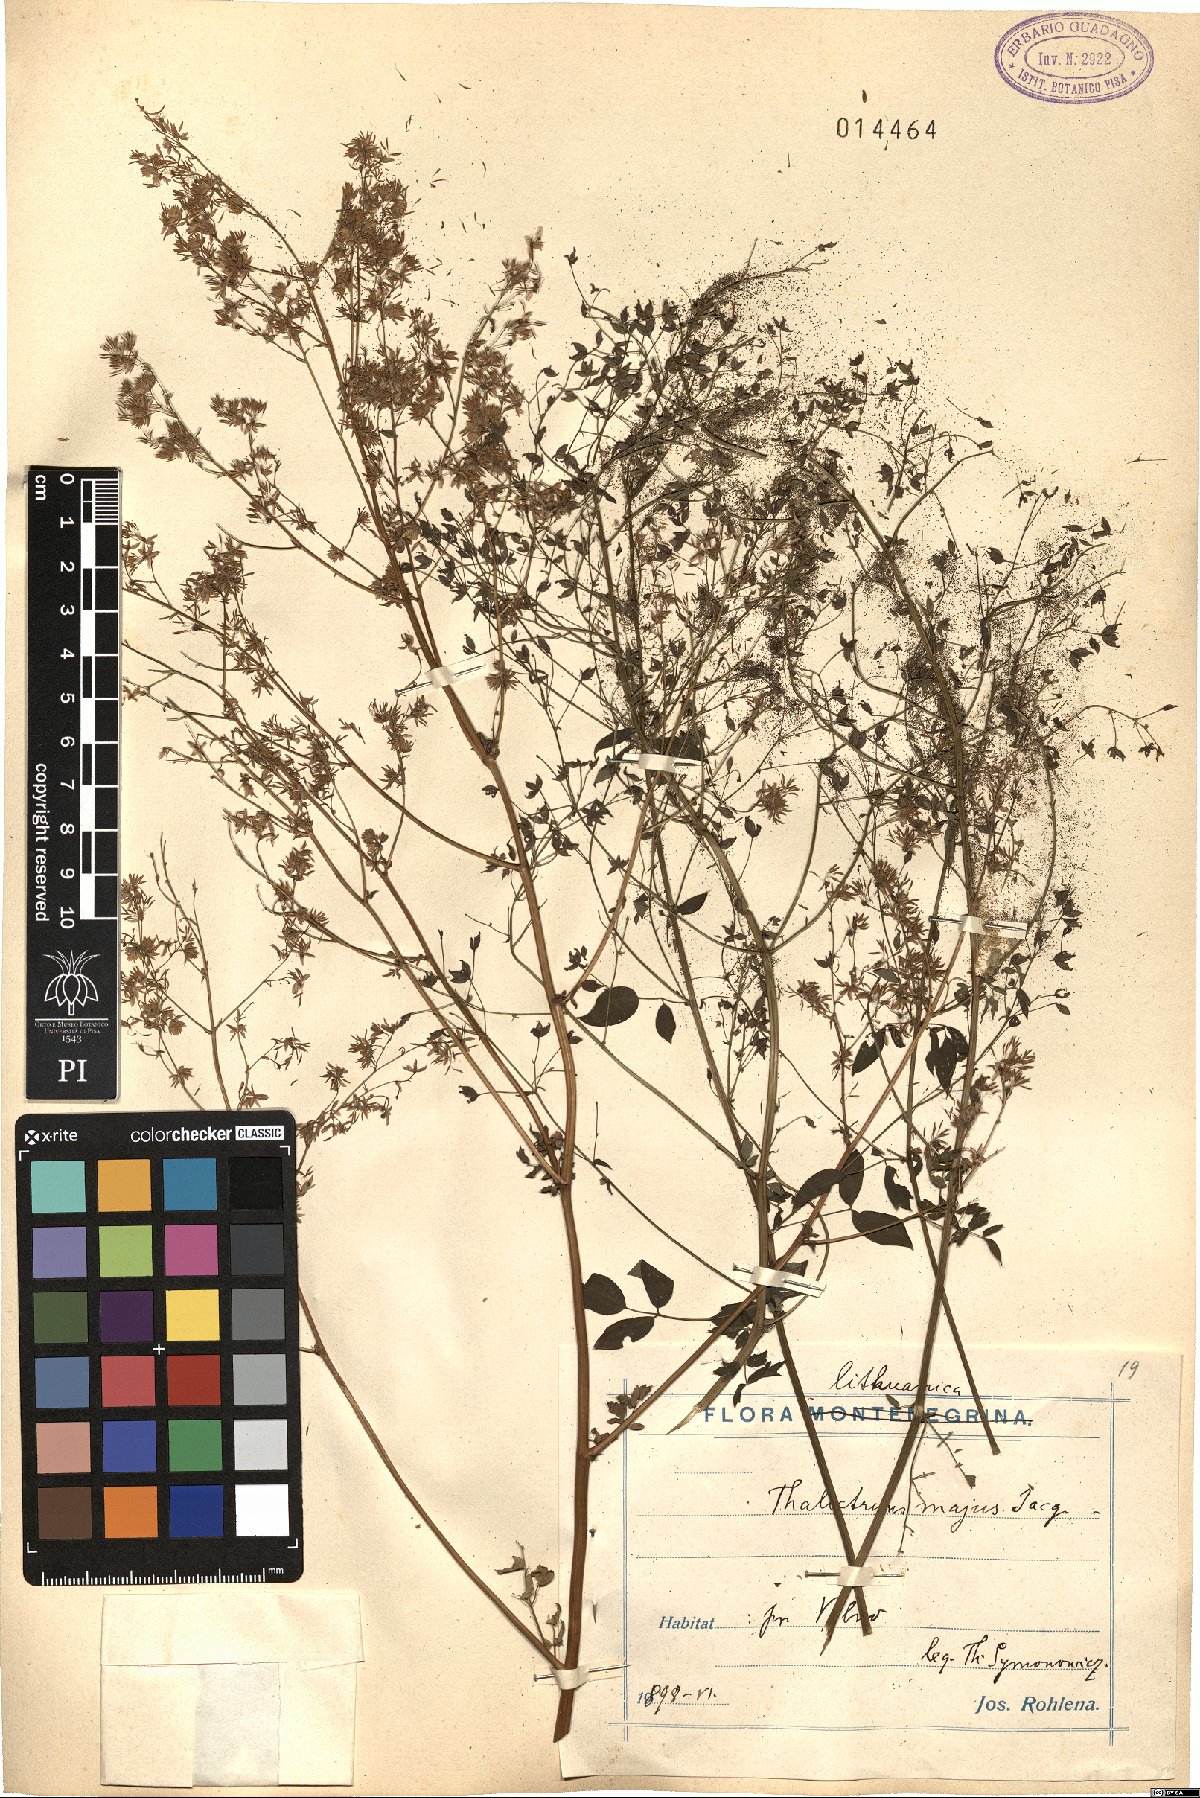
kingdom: Plantae
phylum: Tracheophyta
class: Magnoliopsida
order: Ranunculales
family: Ranunculaceae
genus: Thalictrum
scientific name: Thalictrum minus
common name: Lesser meadow-rue
